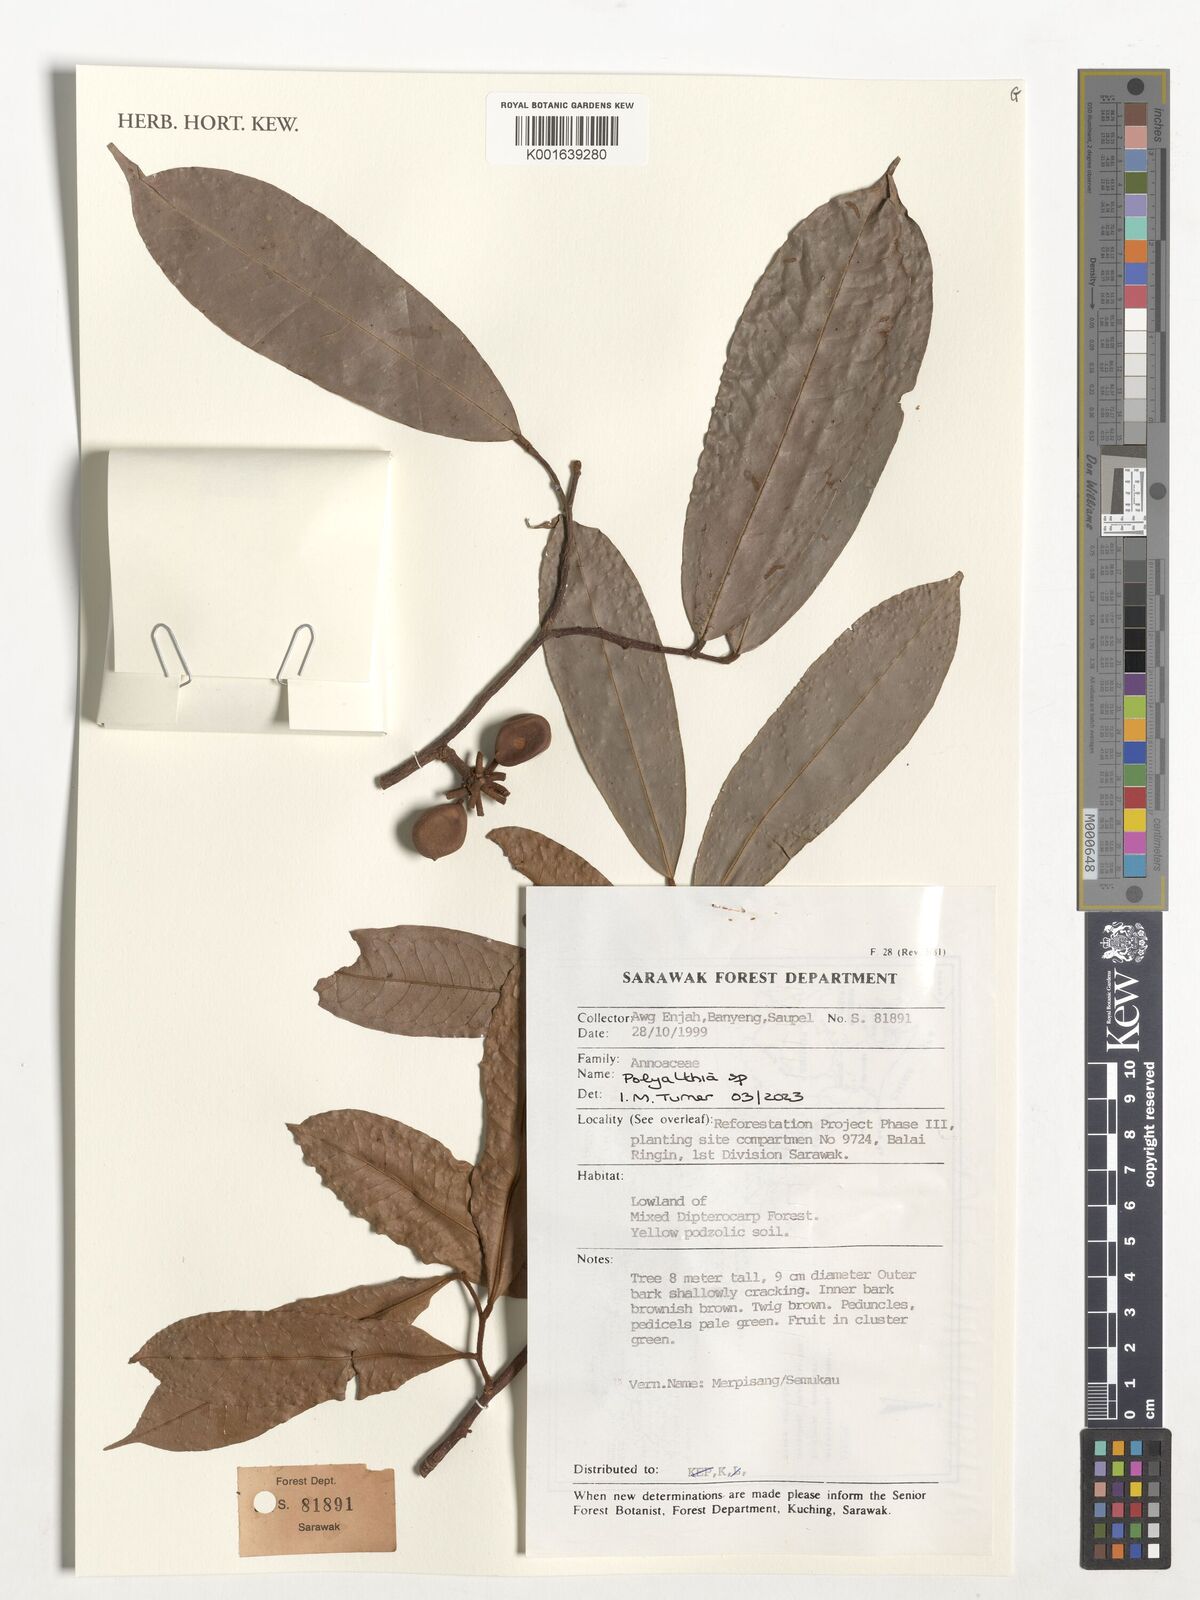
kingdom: Plantae
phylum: Tracheophyta
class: Magnoliopsida
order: Magnoliales
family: Annonaceae
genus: Polyalthia
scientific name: Polyalthia
